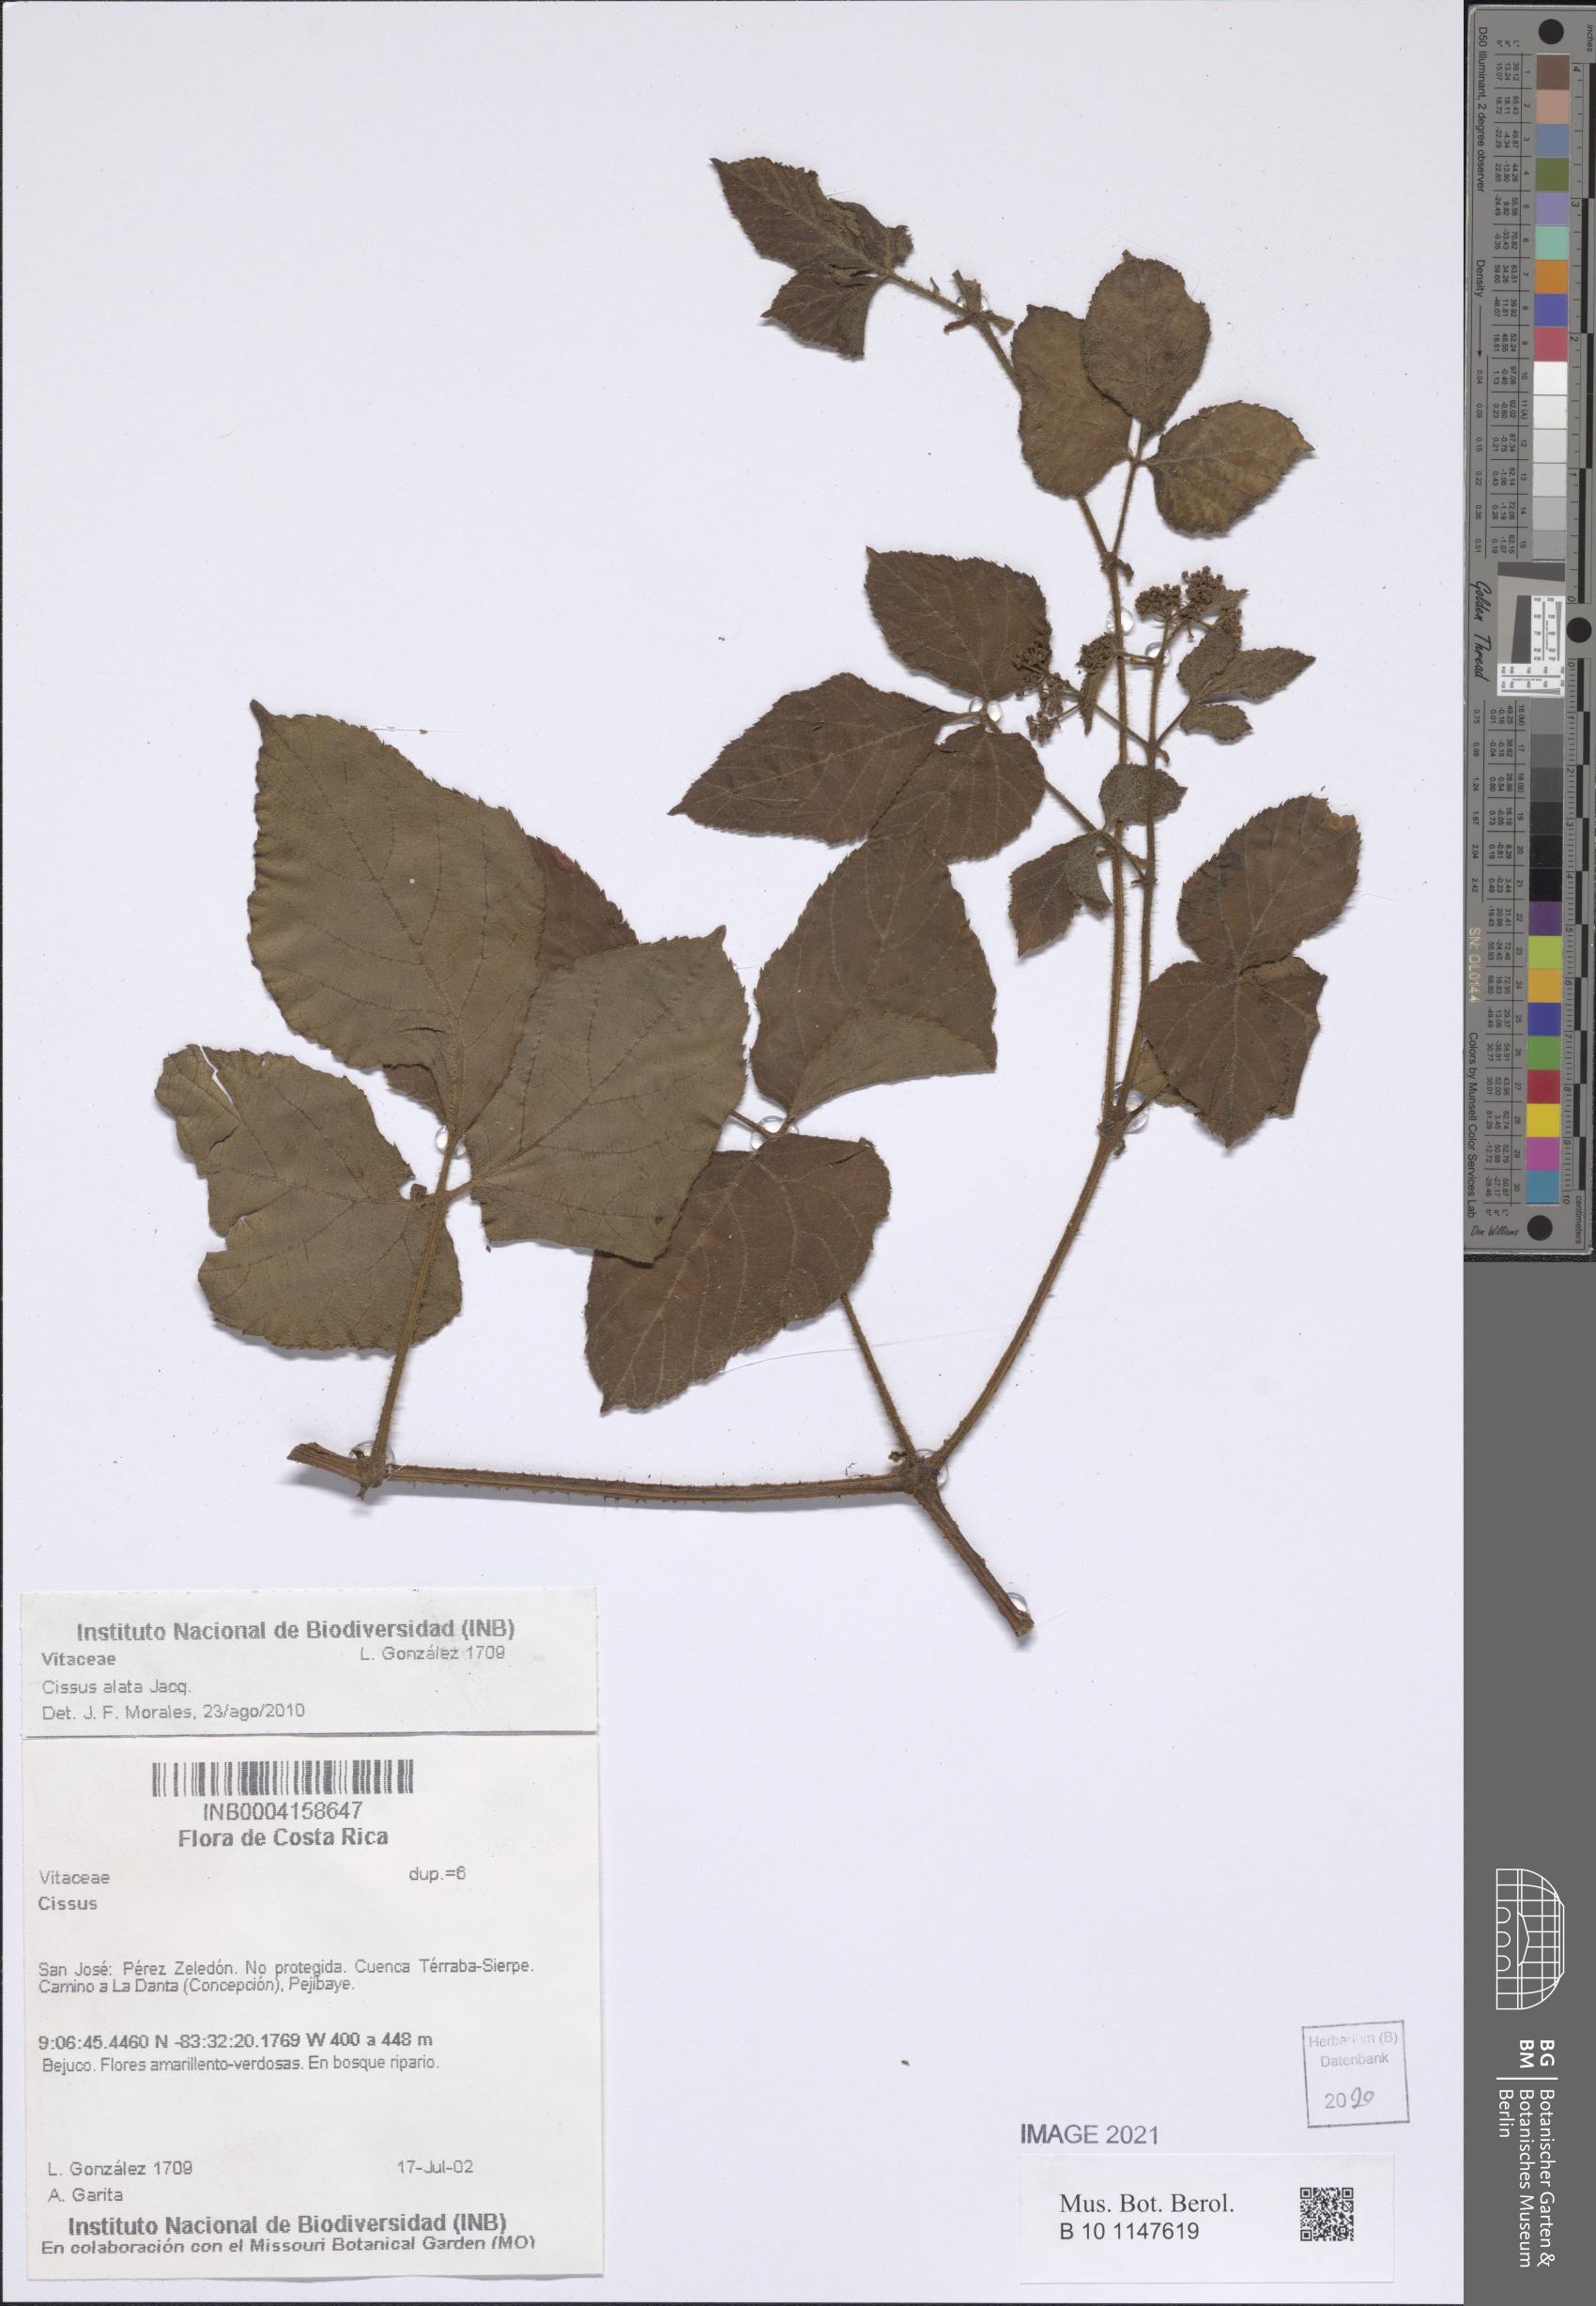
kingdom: Plantae
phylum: Tracheophyta
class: Magnoliopsida
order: Vitales
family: Vitaceae
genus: Cissus
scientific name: Cissus alata
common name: Venezuela treebind
